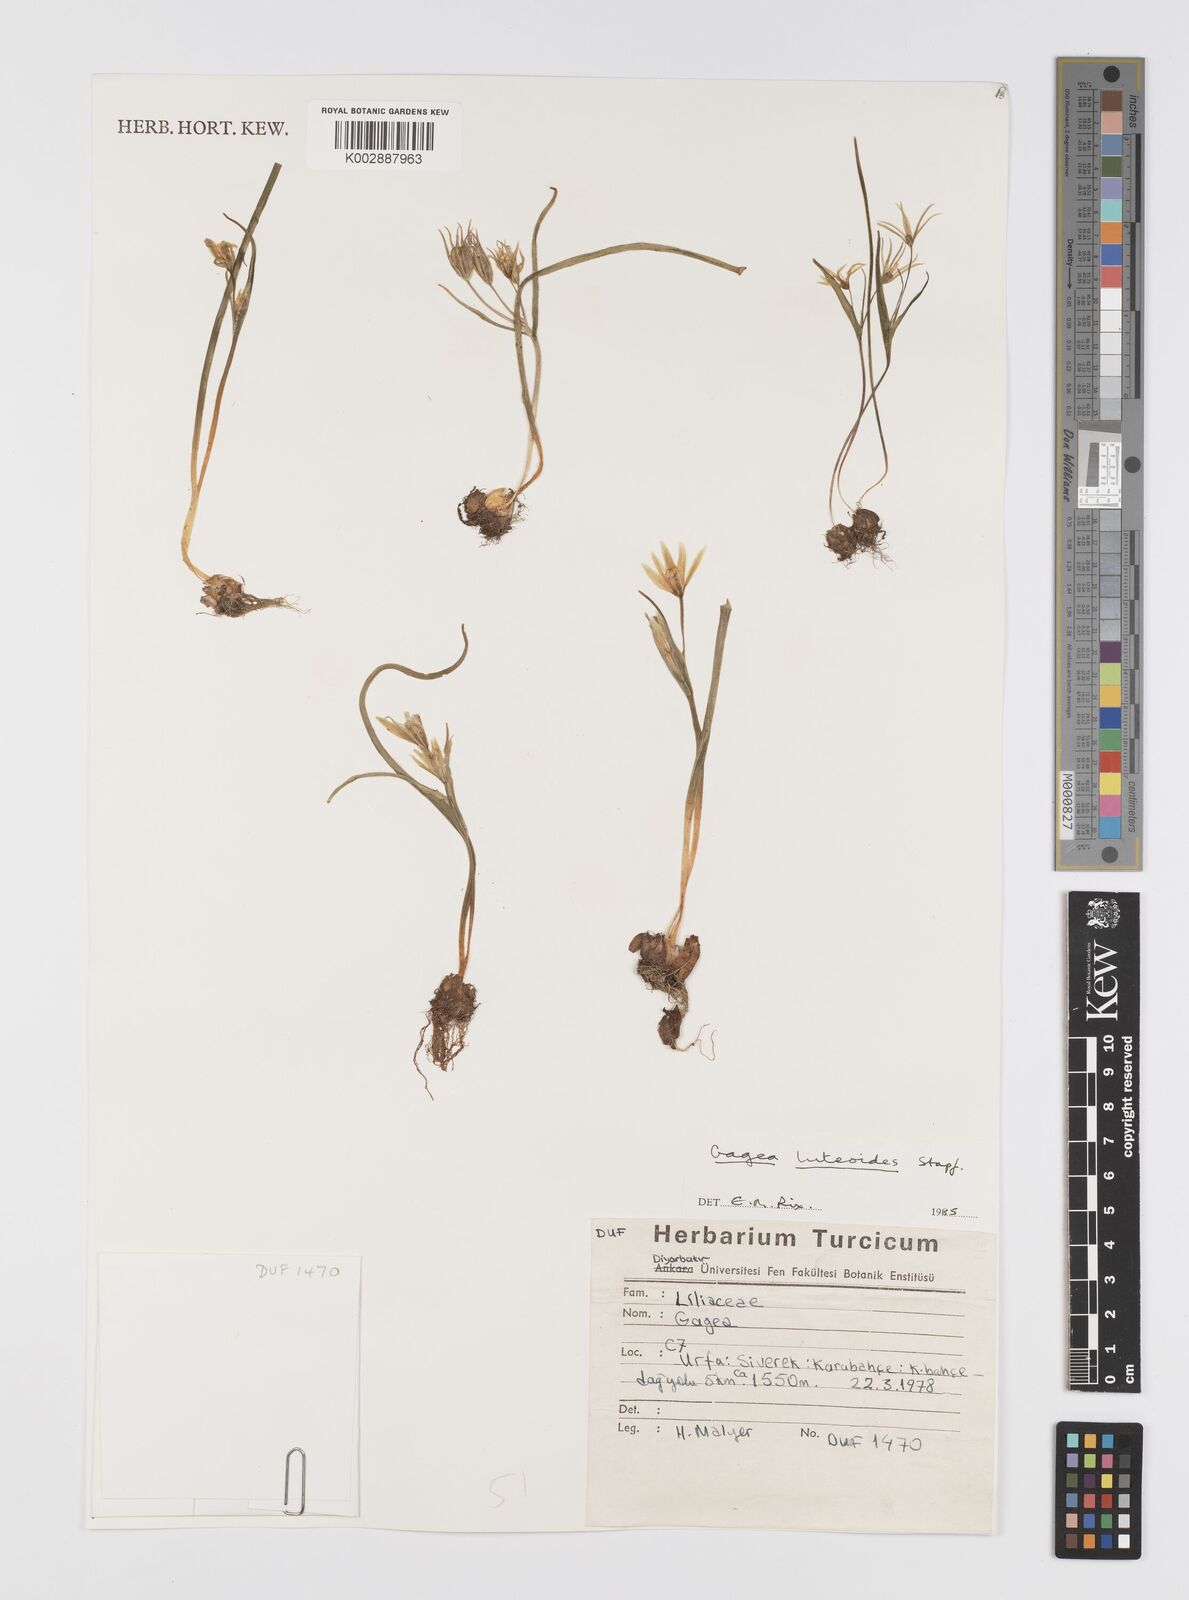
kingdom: Plantae
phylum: Tracheophyta
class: Liliopsida
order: Liliales
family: Liliaceae
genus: Gagea
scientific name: Gagea luteoides
